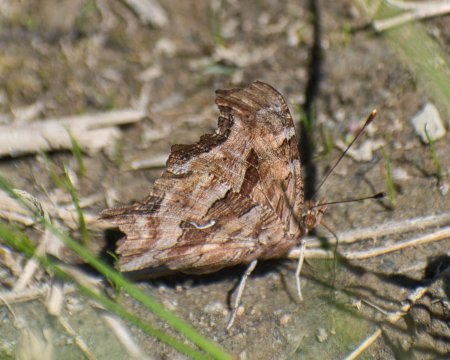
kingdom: Animalia
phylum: Arthropoda
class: Insecta
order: Lepidoptera
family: Nymphalidae
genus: Polygonia
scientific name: Polygonia satyrus
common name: Satyr Comma
